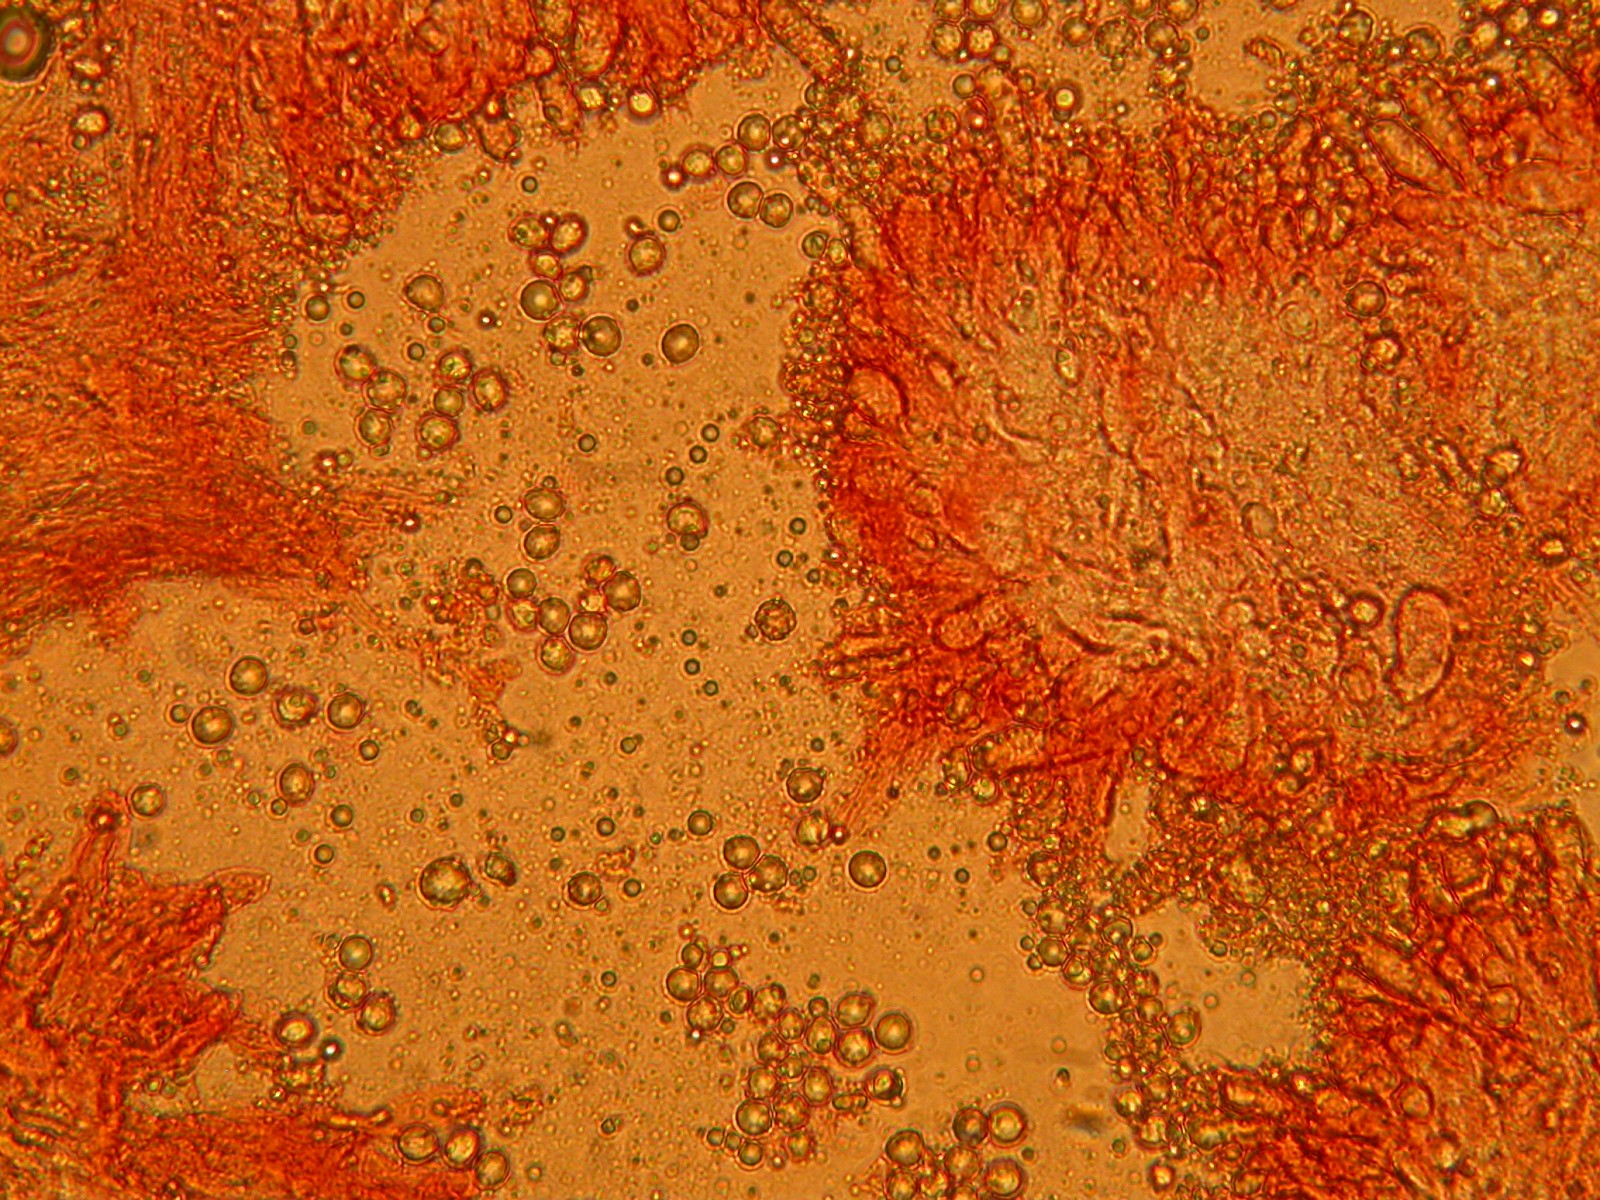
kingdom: Fungi
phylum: Basidiomycota
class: Agaricomycetes
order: Cantharellales
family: Hydnaceae
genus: Hydnum
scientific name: Hydnum repandum
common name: almindelig pigsvamp
